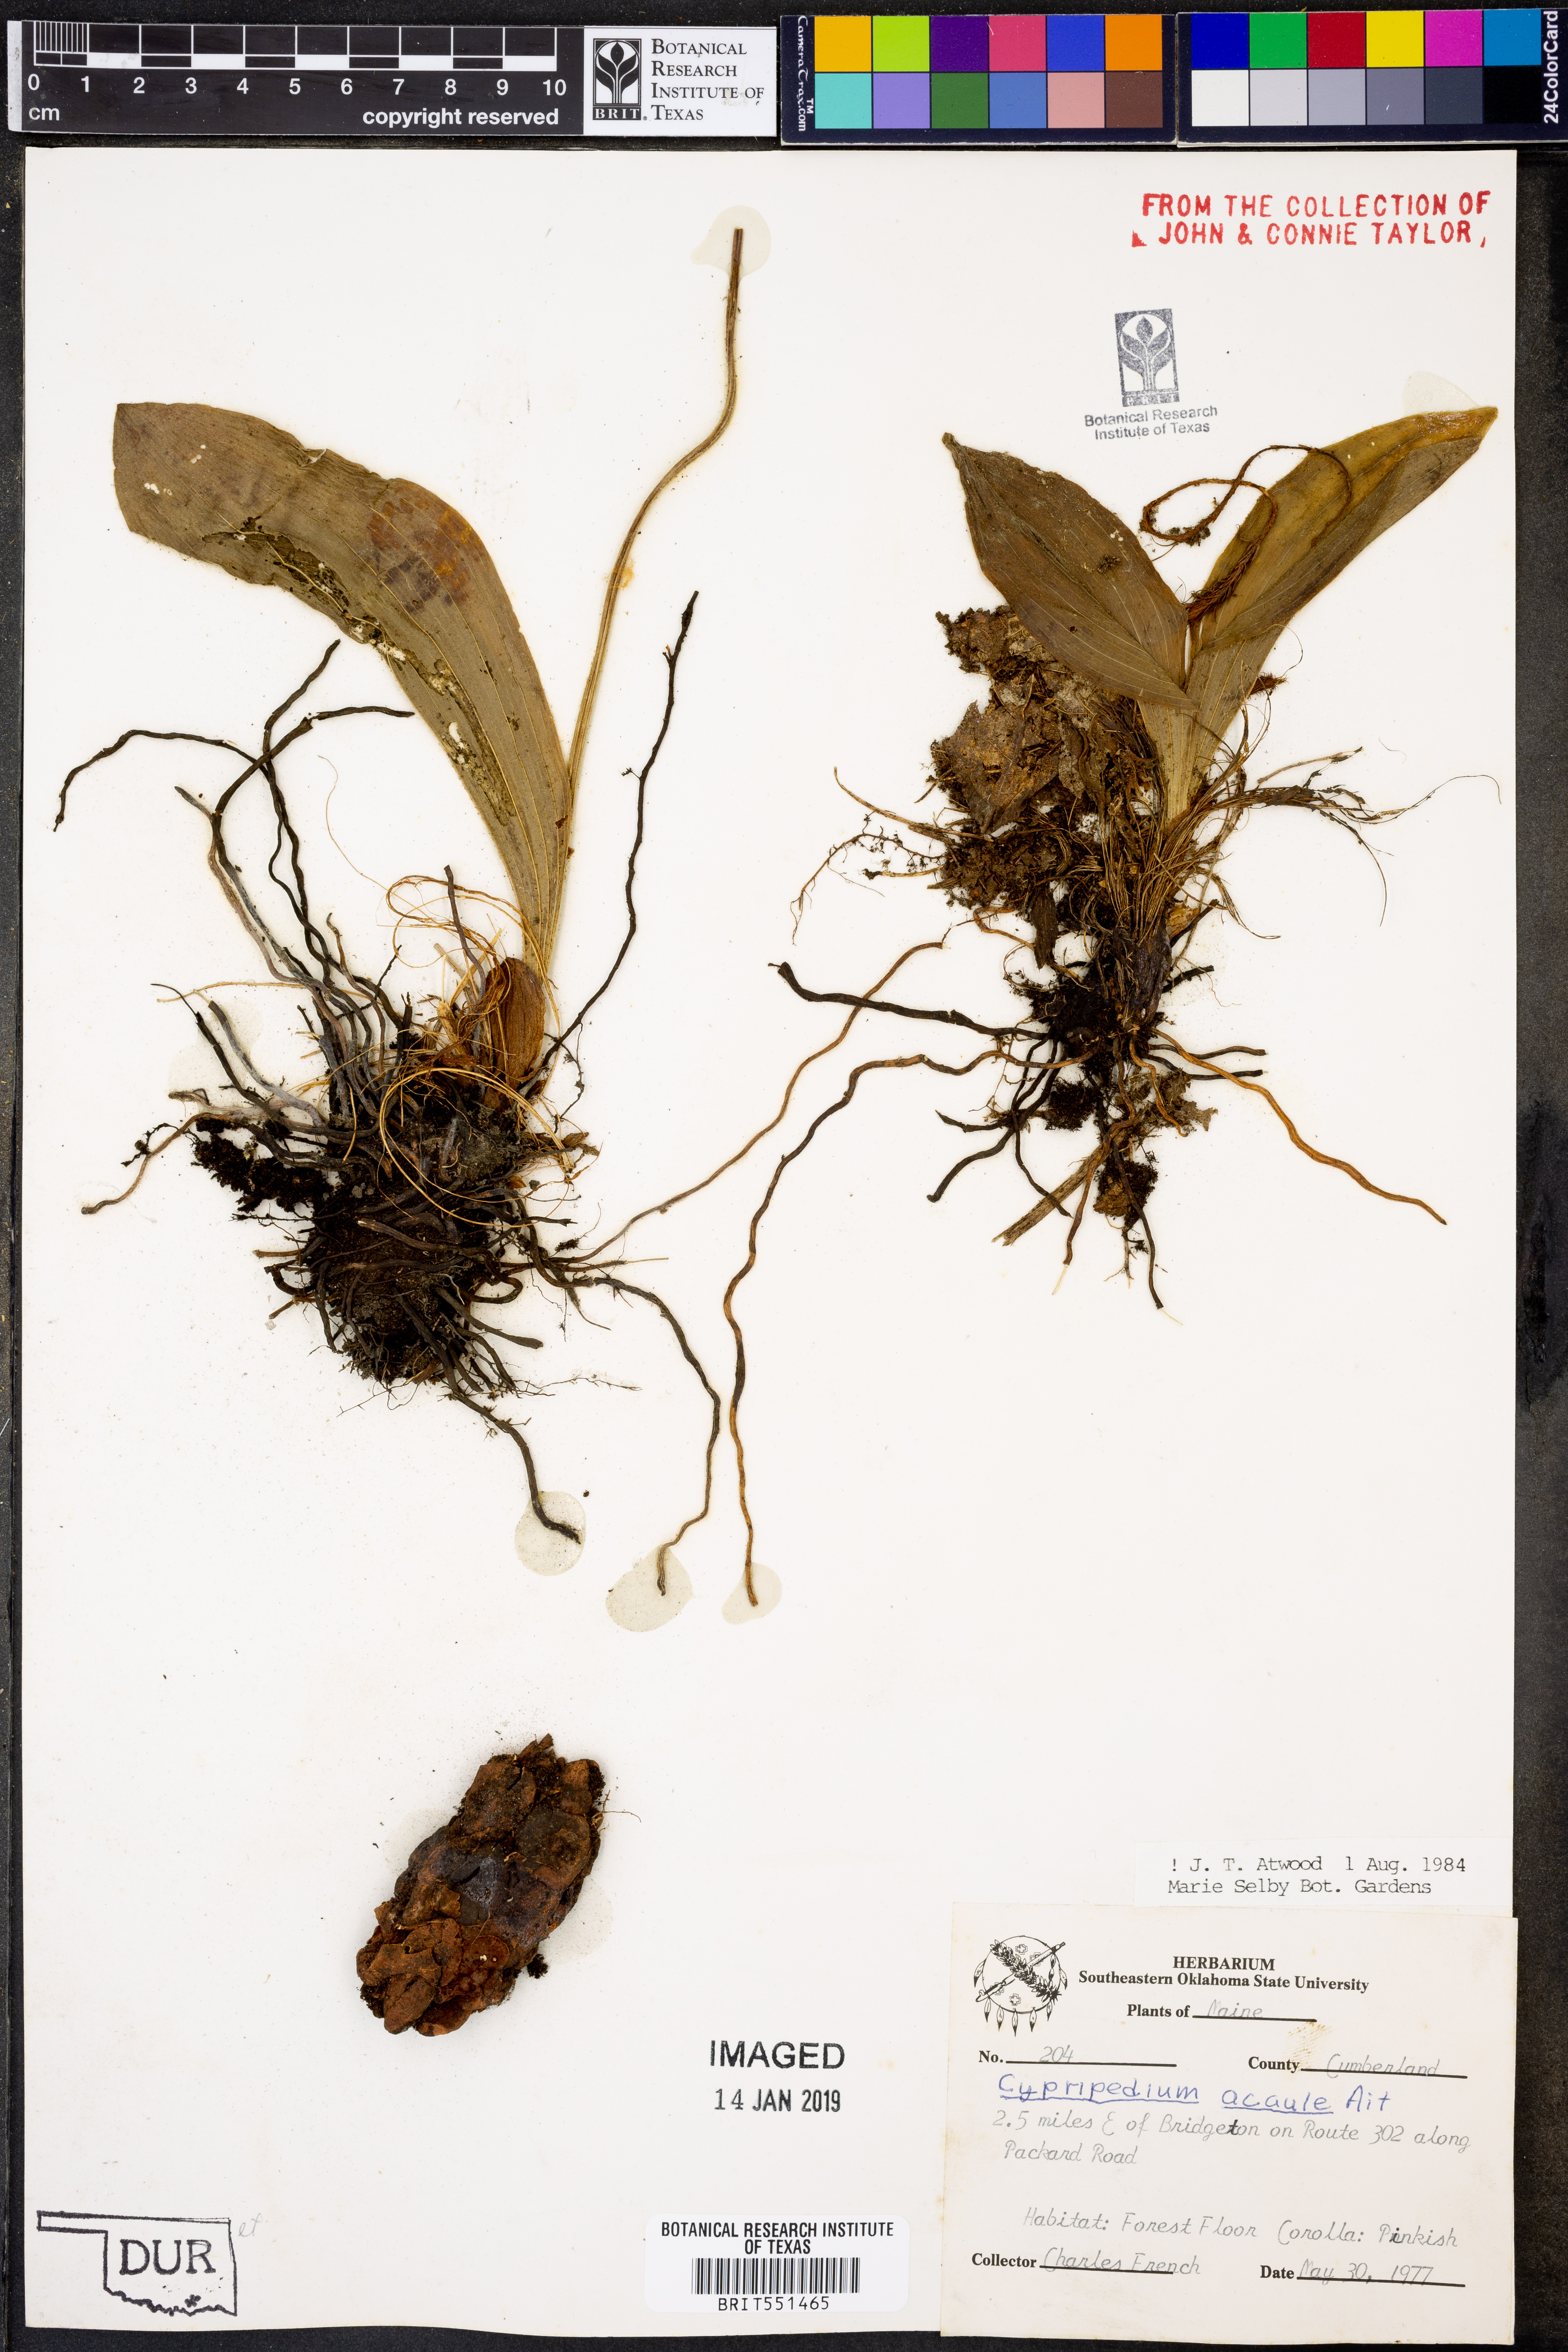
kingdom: Plantae
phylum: Tracheophyta
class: Liliopsida
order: Asparagales
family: Orchidaceae
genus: Cypripedium
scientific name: Cypripedium acaule
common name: Pink lady's-slipper
